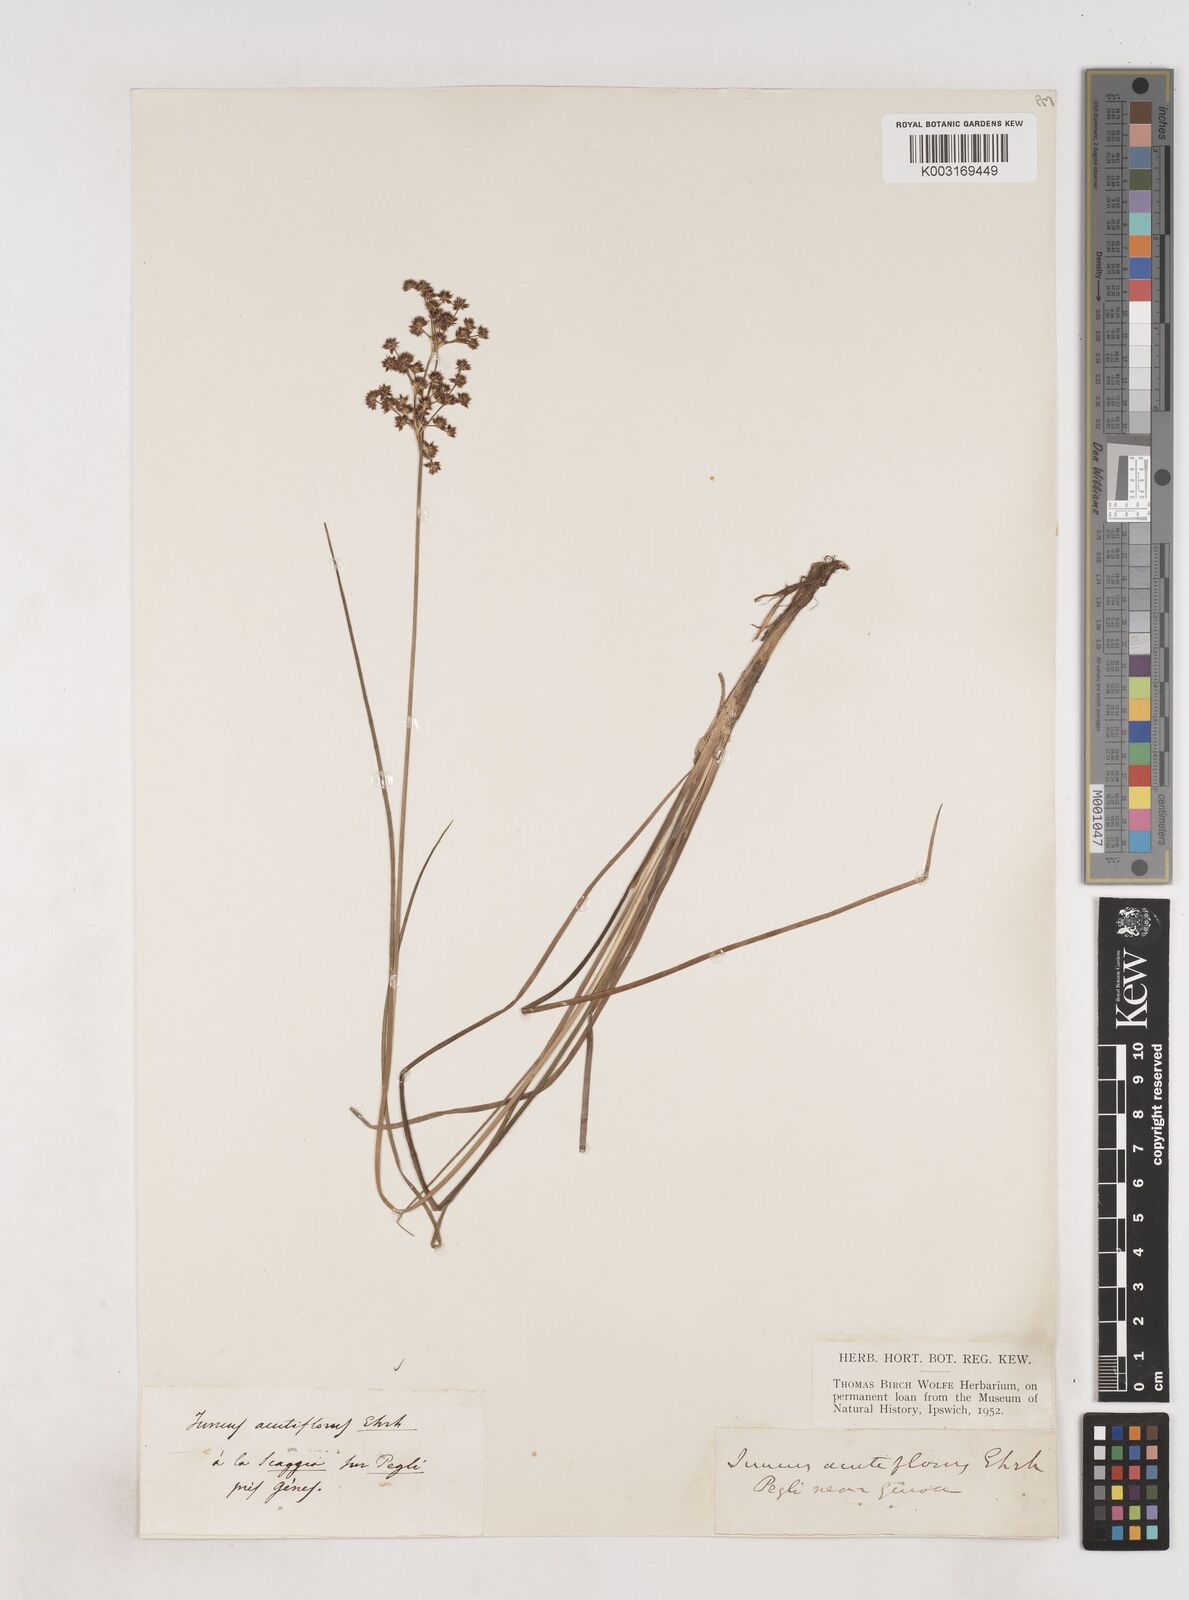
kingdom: Plantae
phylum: Tracheophyta
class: Liliopsida
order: Poales
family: Juncaceae
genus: Juncus
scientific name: Juncus acutiflorus
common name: Sharp-flowered rush
